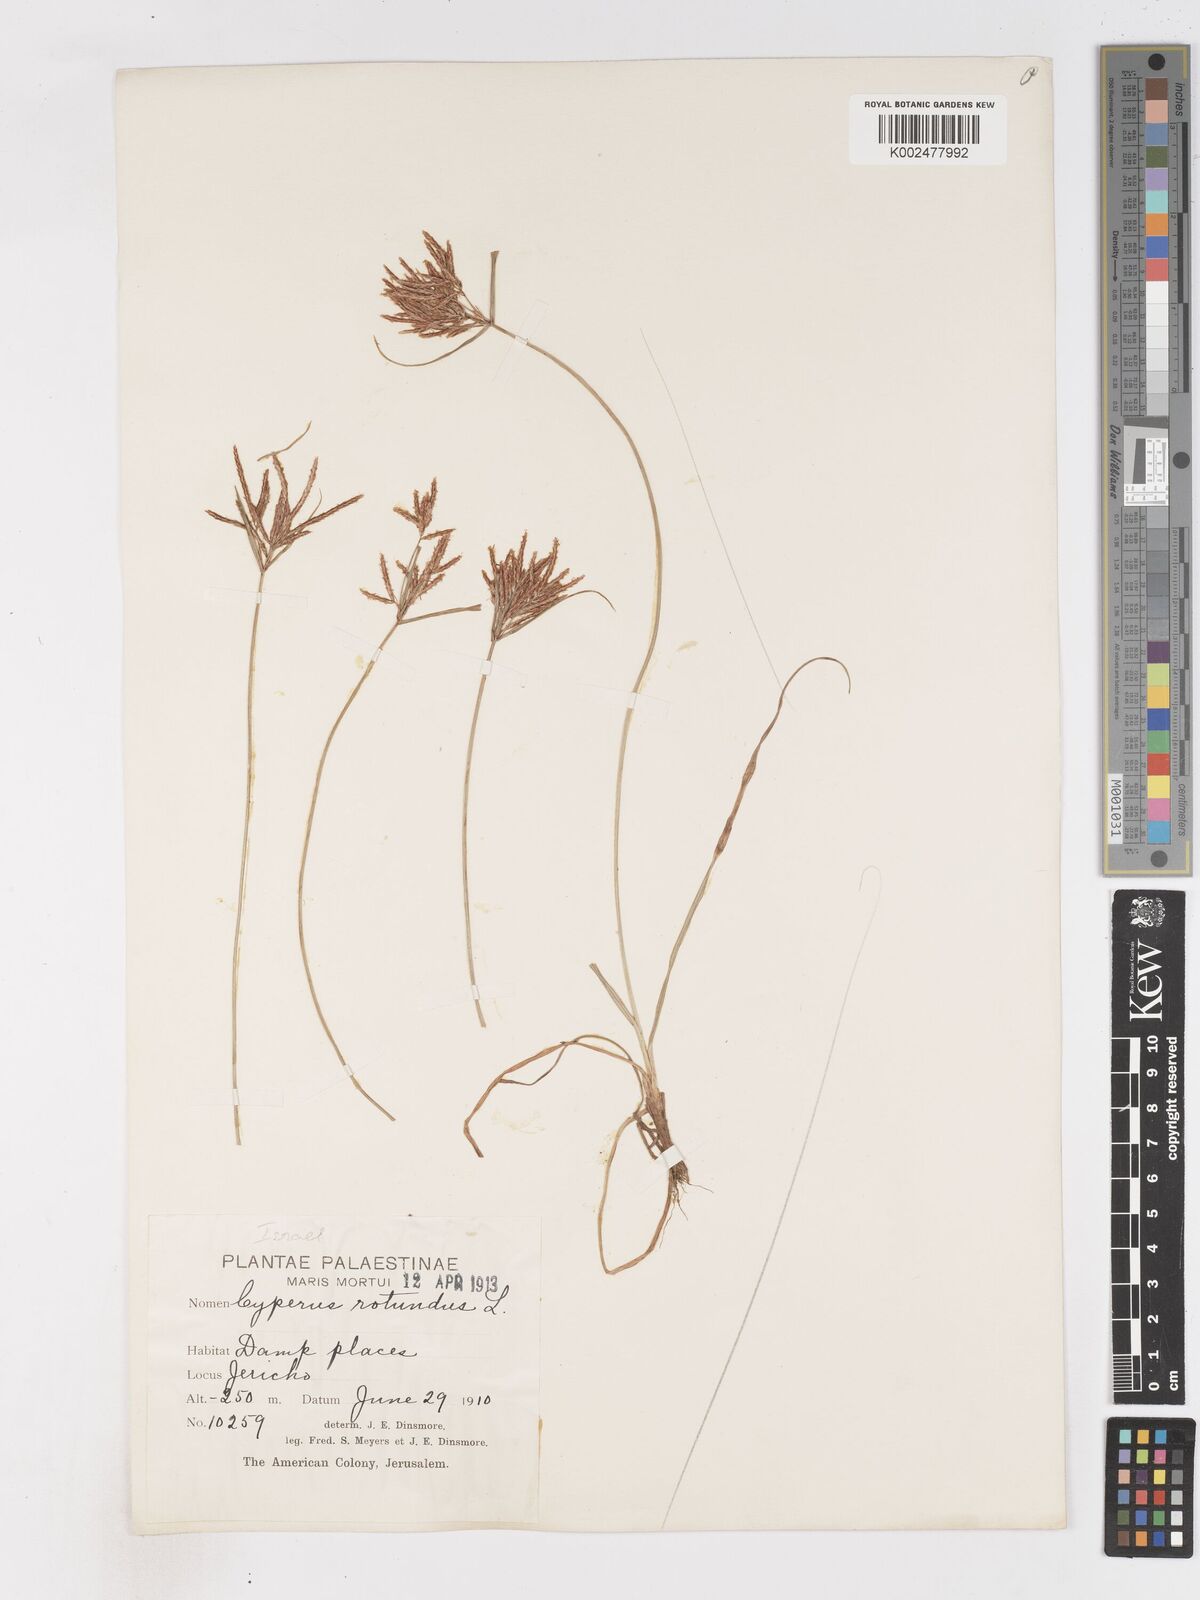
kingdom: Plantae
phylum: Tracheophyta
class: Liliopsida
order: Poales
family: Cyperaceae
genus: Cyperus
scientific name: Cyperus rotundus
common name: Nutgrass
